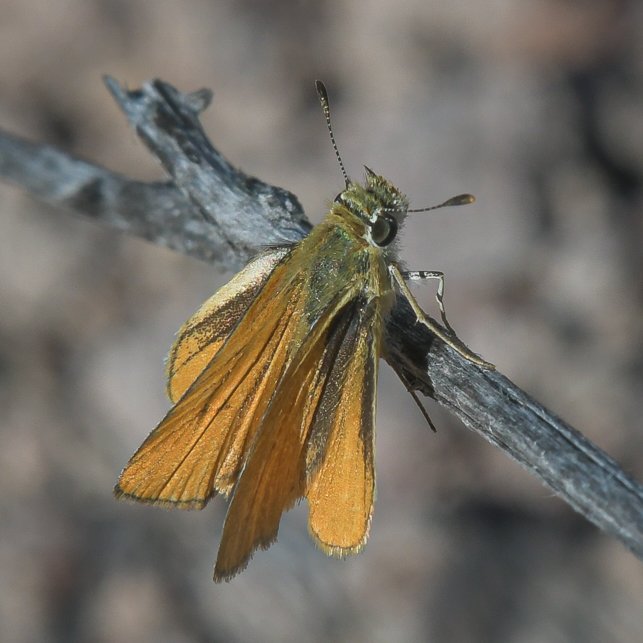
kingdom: Animalia
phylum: Arthropoda
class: Insecta
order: Lepidoptera
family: Hesperiidae
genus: Copaeodes
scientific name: Copaeodes aurantiaca
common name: Orange Skipperling
